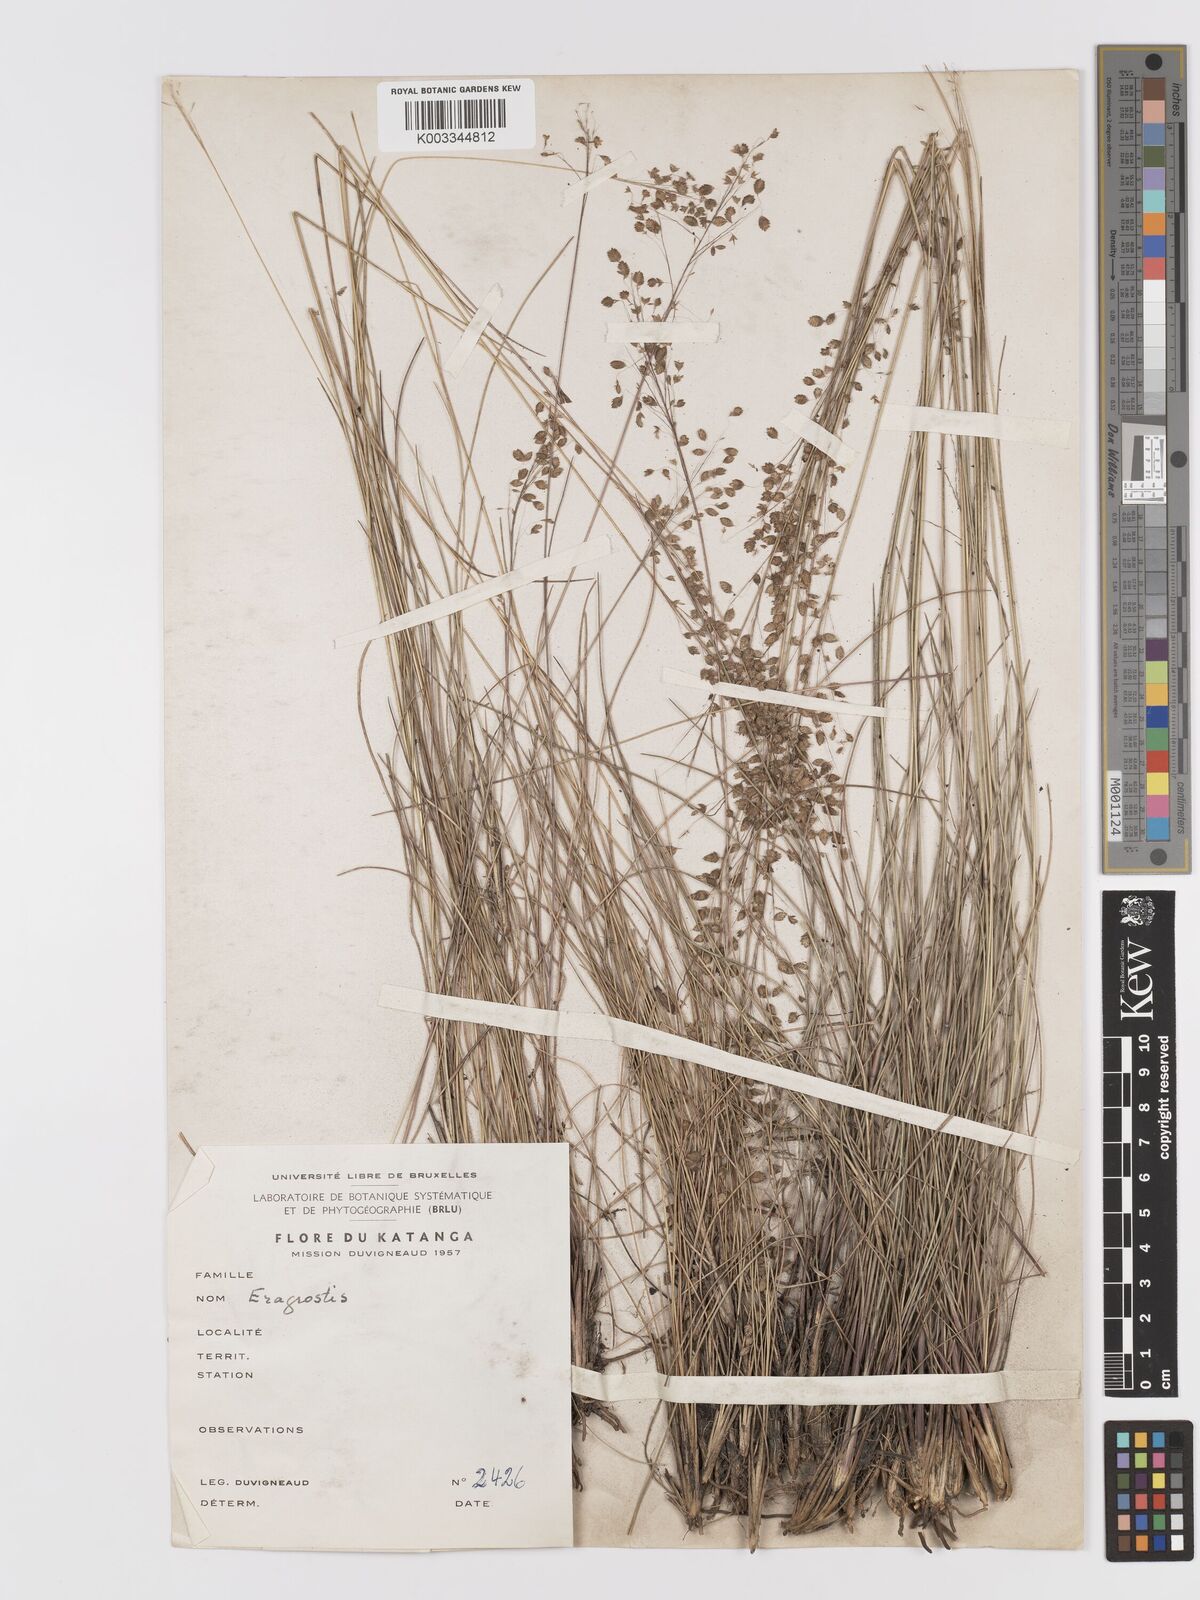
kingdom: Plantae
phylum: Tracheophyta
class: Liliopsida
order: Poales
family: Poaceae
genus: Eragrostis
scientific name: Eragrostis plurigluma
